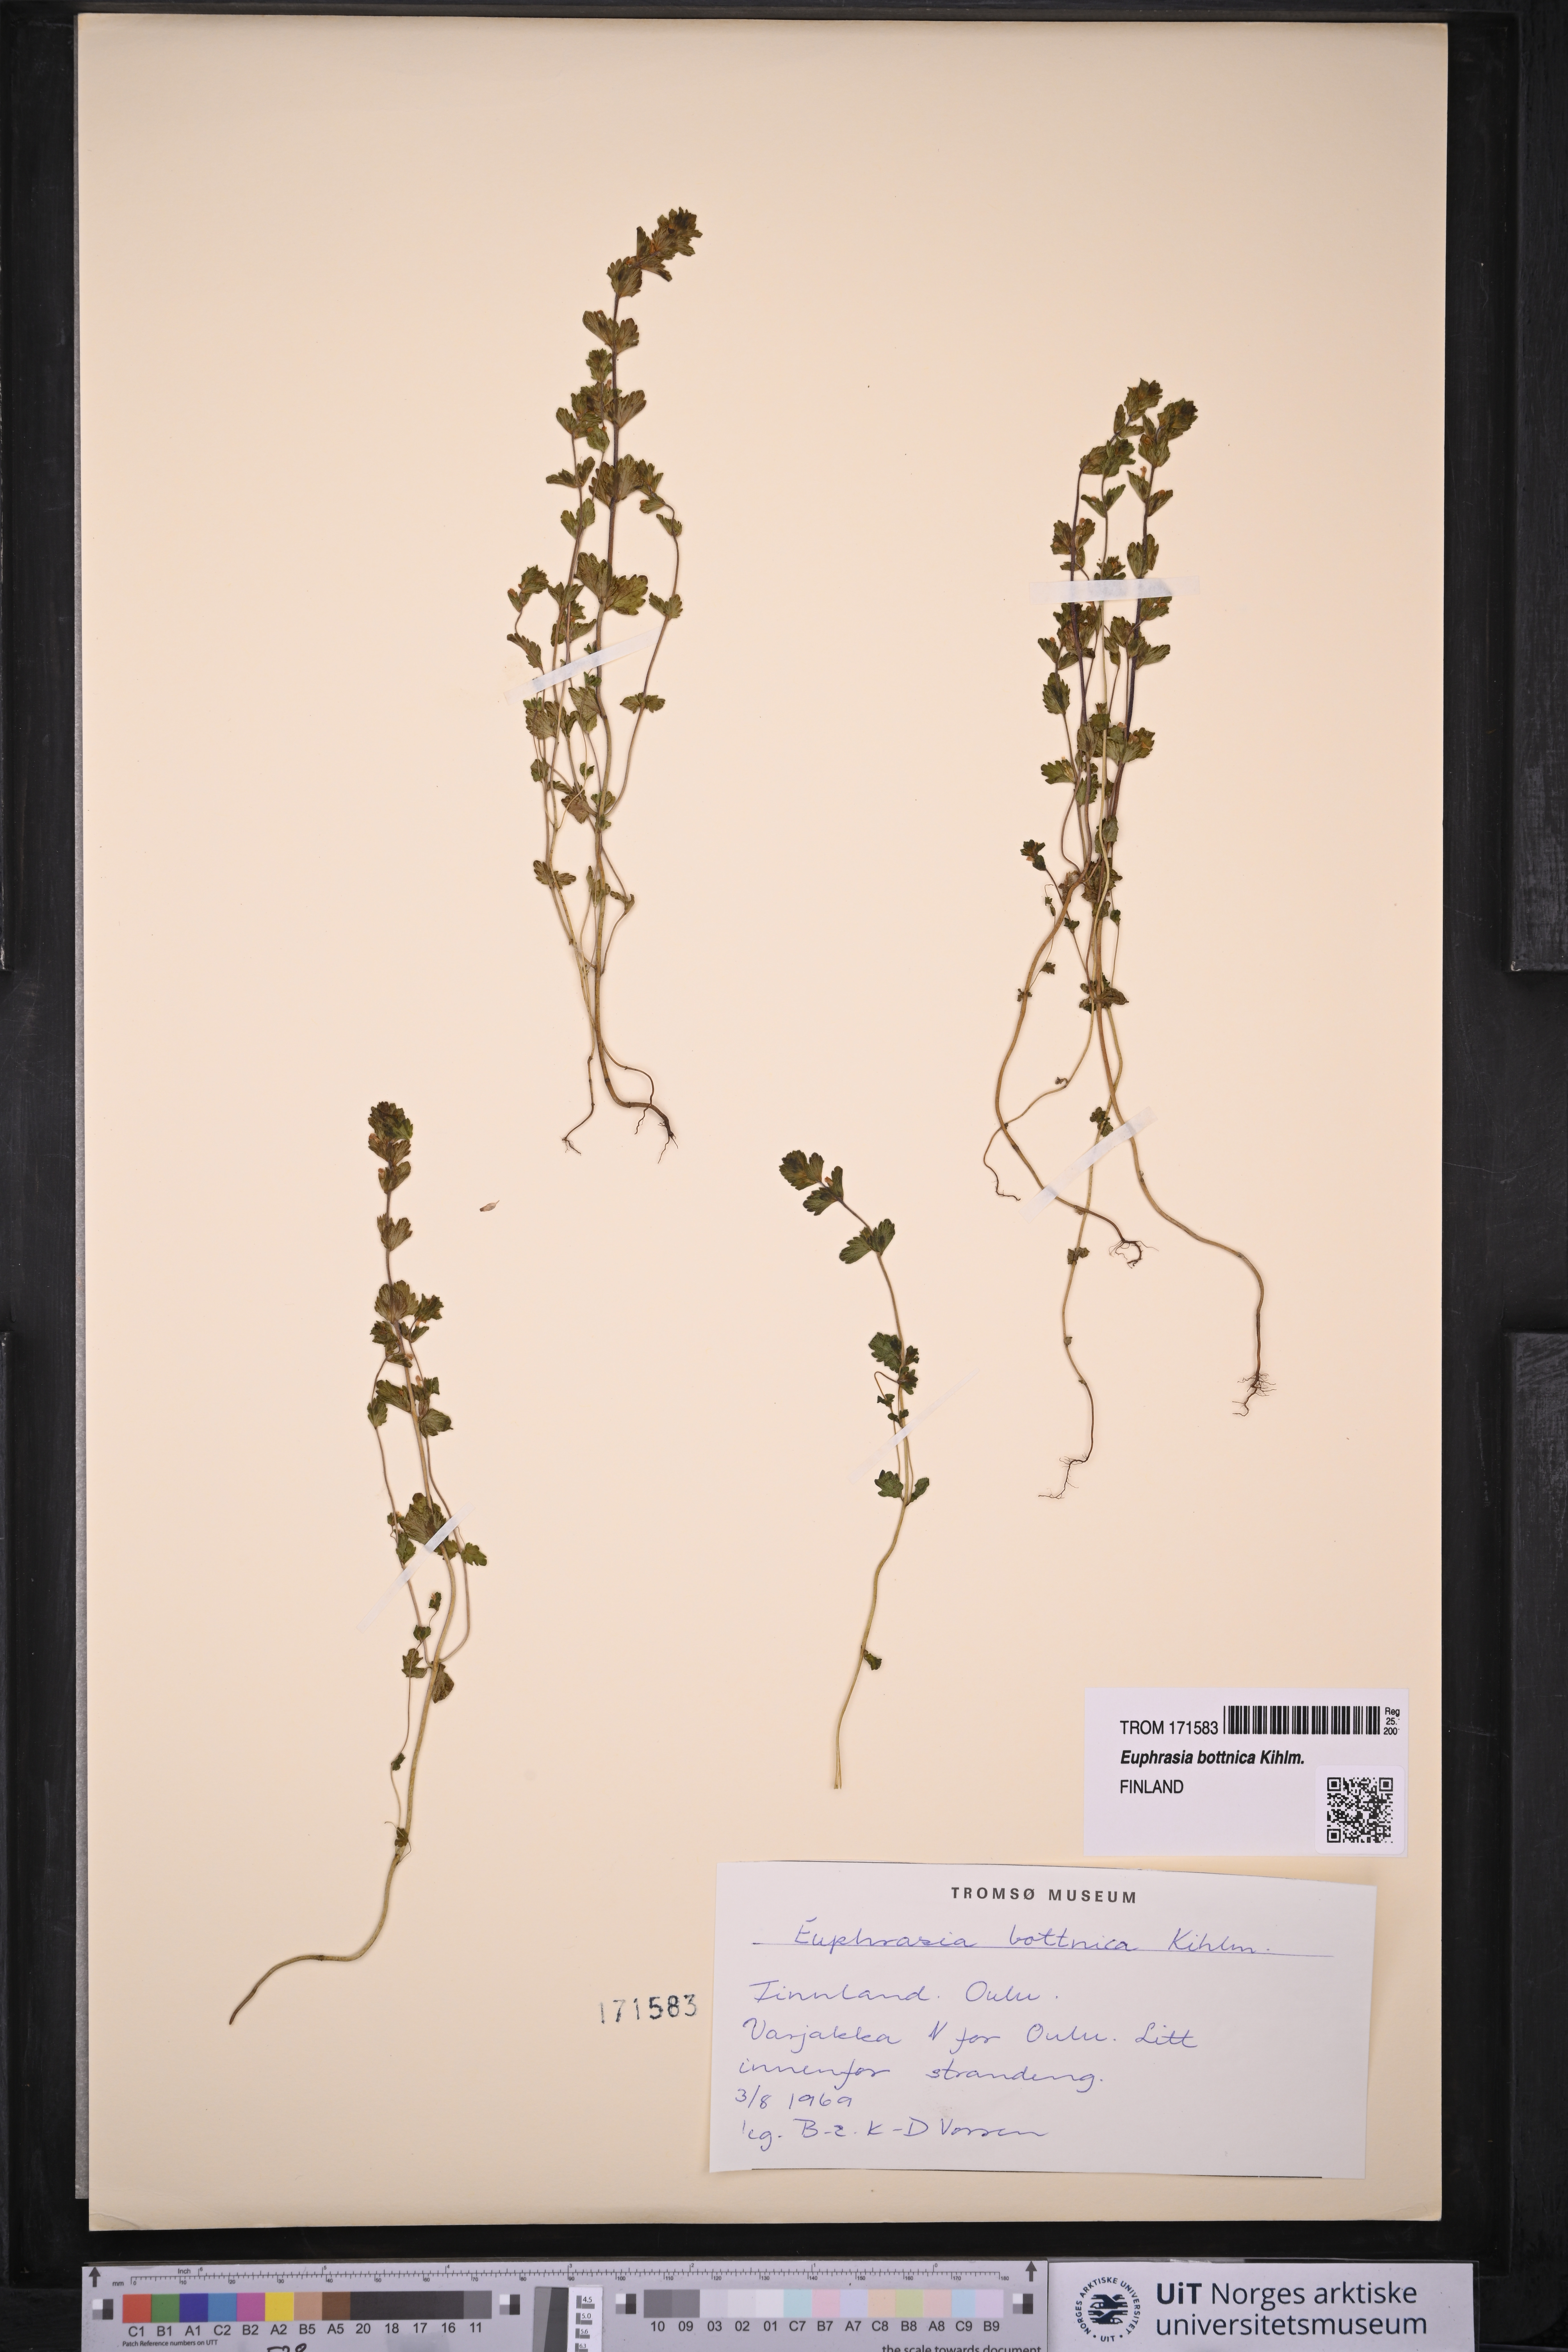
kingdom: Plantae
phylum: Tracheophyta
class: Magnoliopsida
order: Lamiales
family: Orobanchaceae
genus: Euphrasia
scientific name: Euphrasia bottnica
